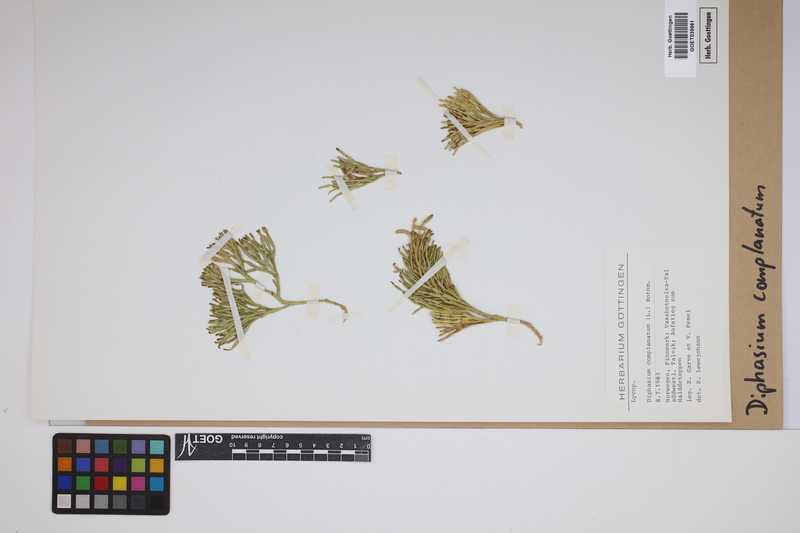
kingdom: Plantae
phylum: Tracheophyta
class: Lycopodiopsida
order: Lycopodiales
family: Lycopodiaceae
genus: Diphasiastrum
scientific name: Diphasiastrum complanatum
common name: Northern running-pine
